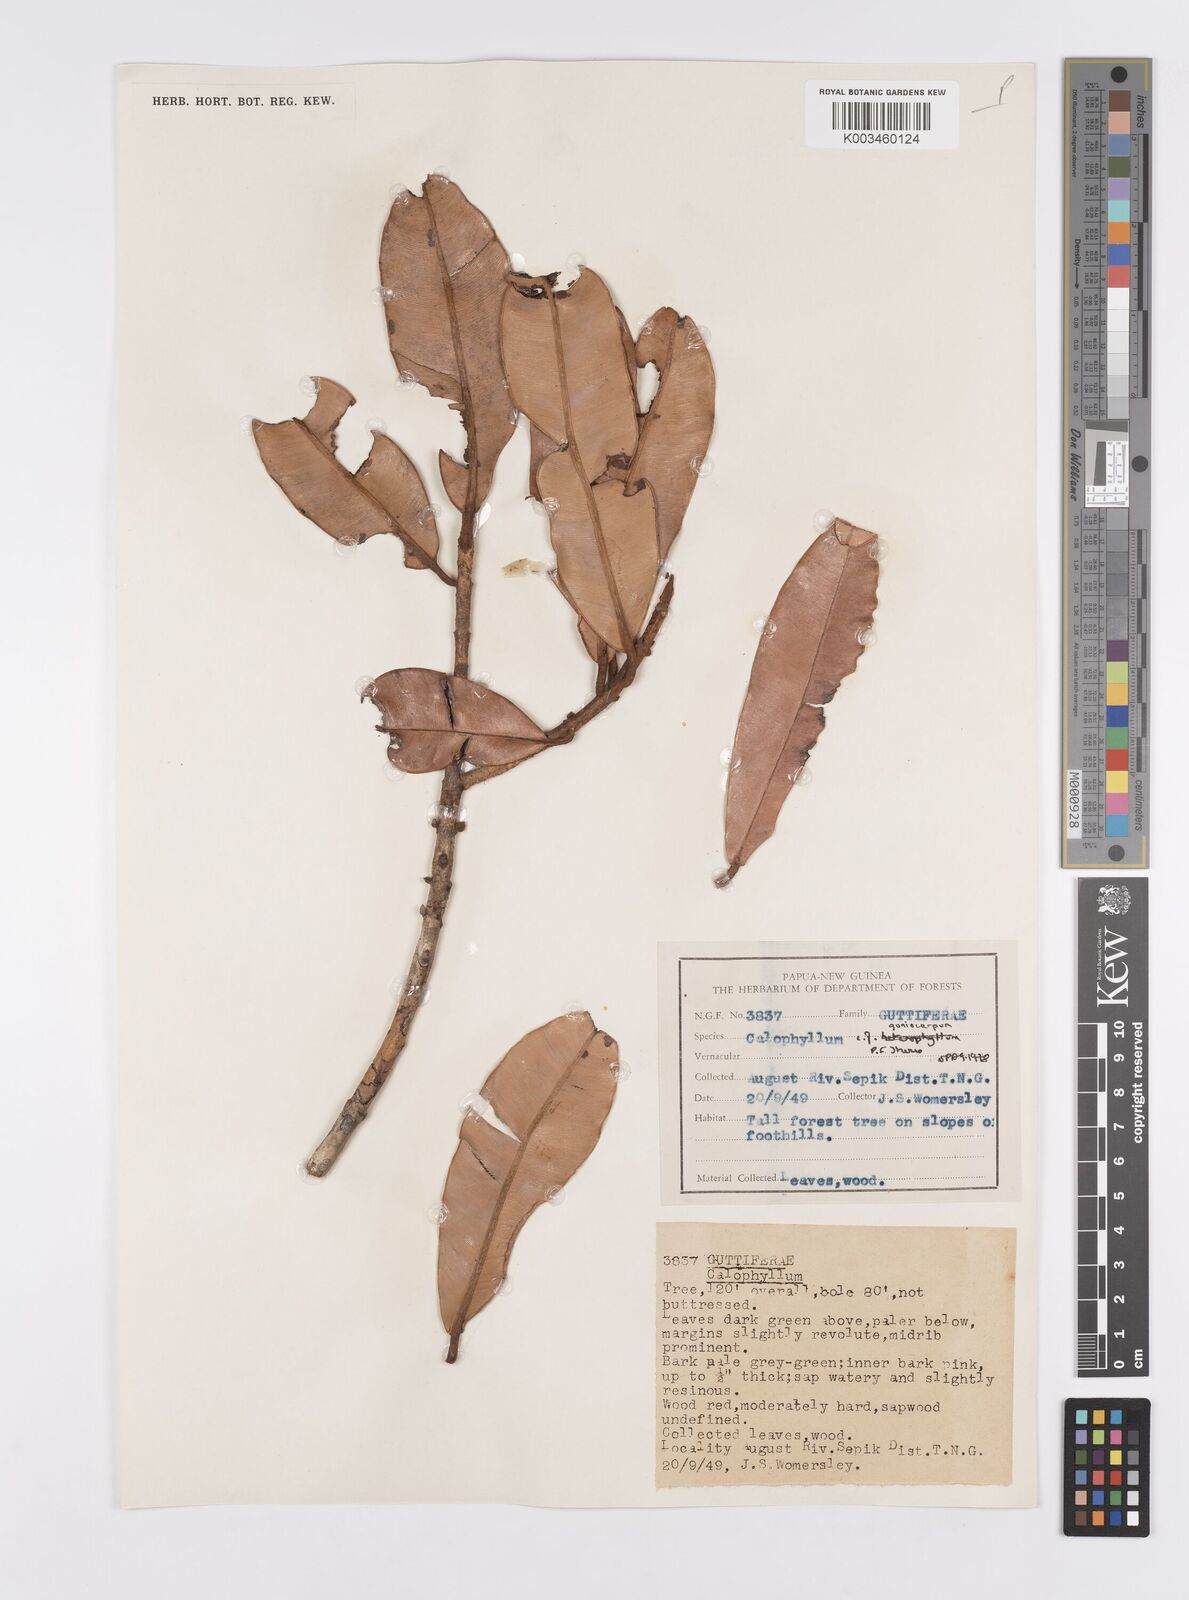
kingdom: Plantae
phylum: Tracheophyta
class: Magnoliopsida
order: Malpighiales
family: Calophyllaceae
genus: Calophyllum
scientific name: Calophyllum goniocarpum
